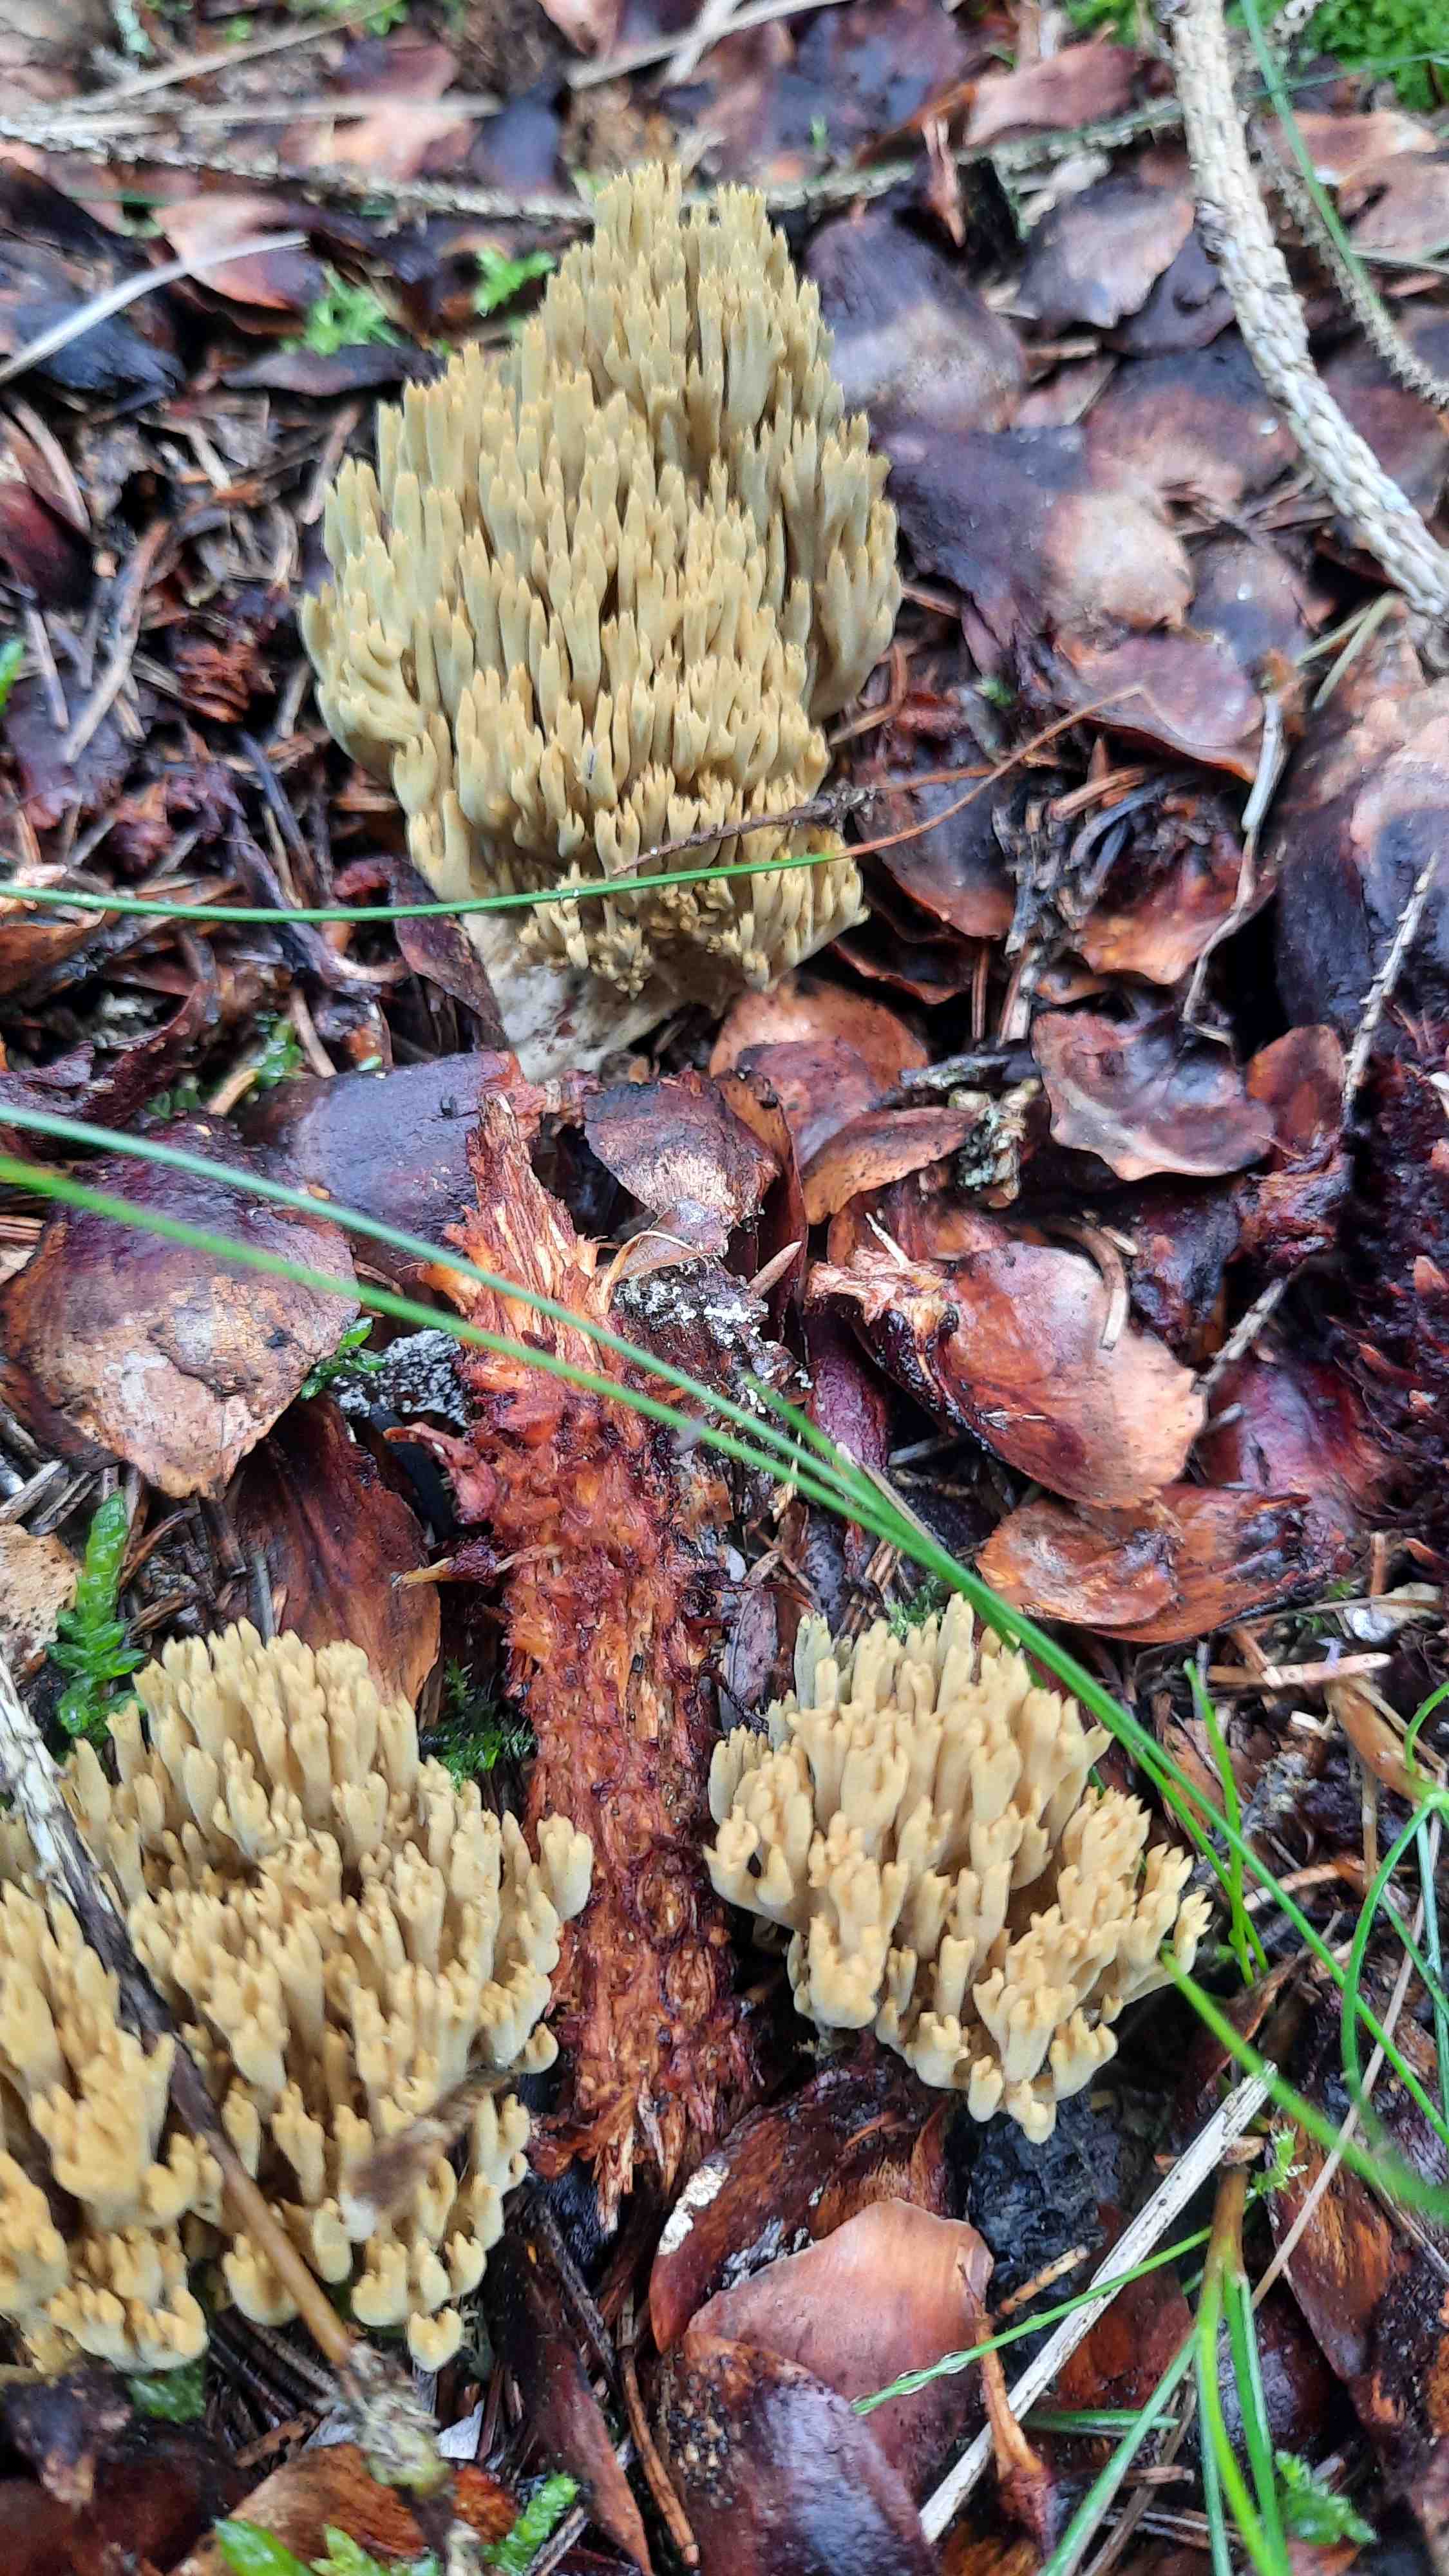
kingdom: Fungi
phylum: Basidiomycota
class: Agaricomycetes
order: Gomphales
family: Gomphaceae
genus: Phaeoclavulina
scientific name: Phaeoclavulina
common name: koralsvamp
